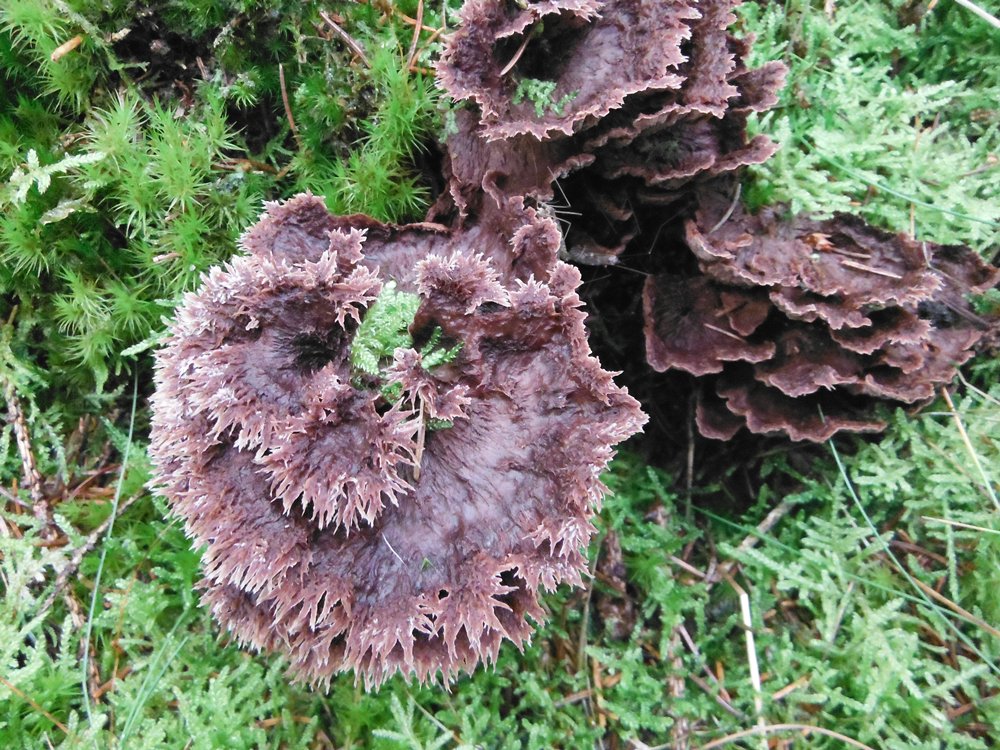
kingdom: Fungi
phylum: Basidiomycota
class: Agaricomycetes
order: Thelephorales
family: Thelephoraceae
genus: Thelephora
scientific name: Thelephora terrestris
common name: fliget frynsesvamp
